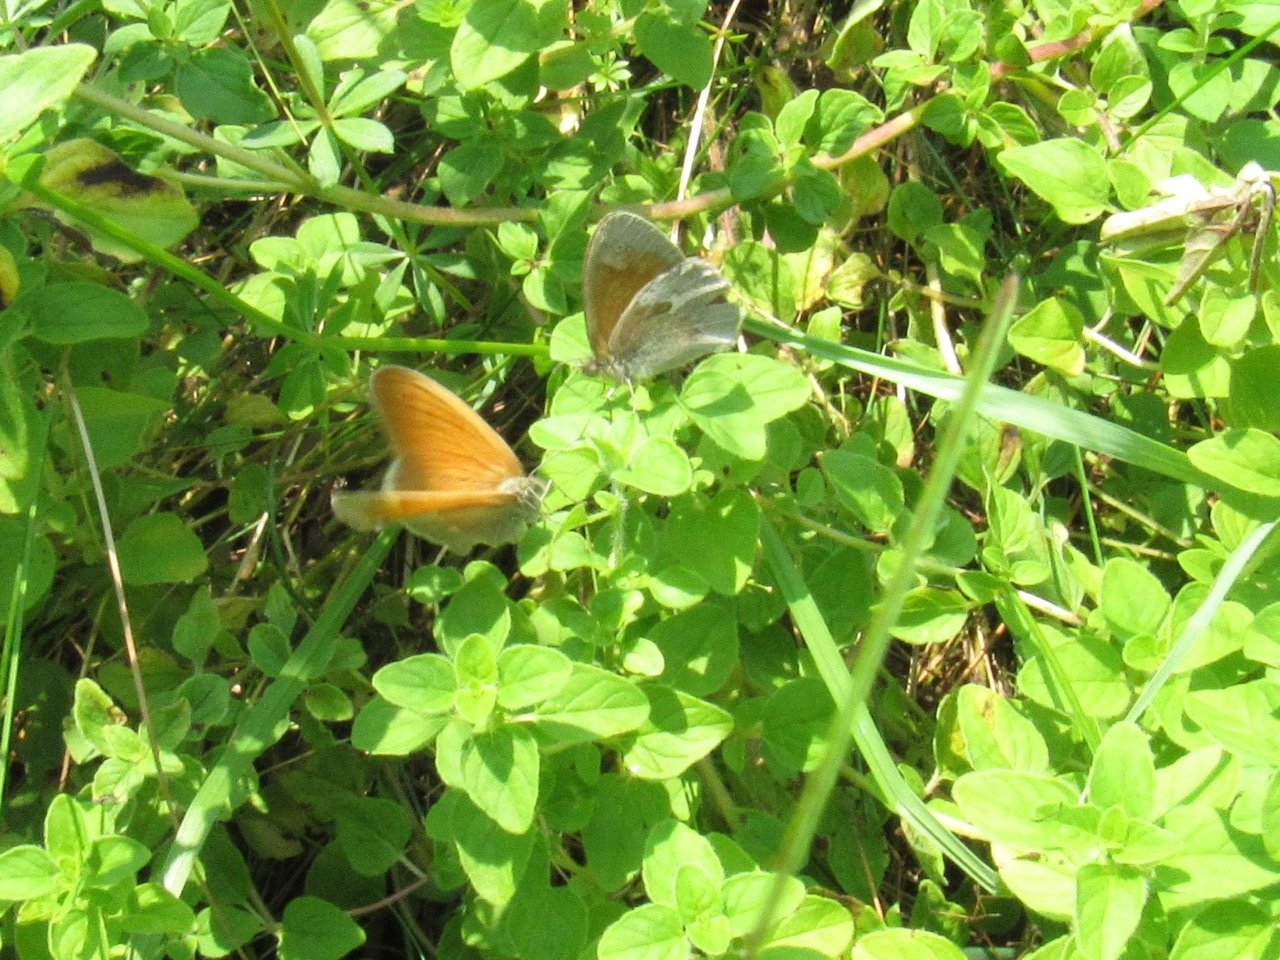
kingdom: Animalia
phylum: Arthropoda
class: Insecta
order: Lepidoptera
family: Nymphalidae
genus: Coenonympha
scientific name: Coenonympha tullia
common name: Large Heath
